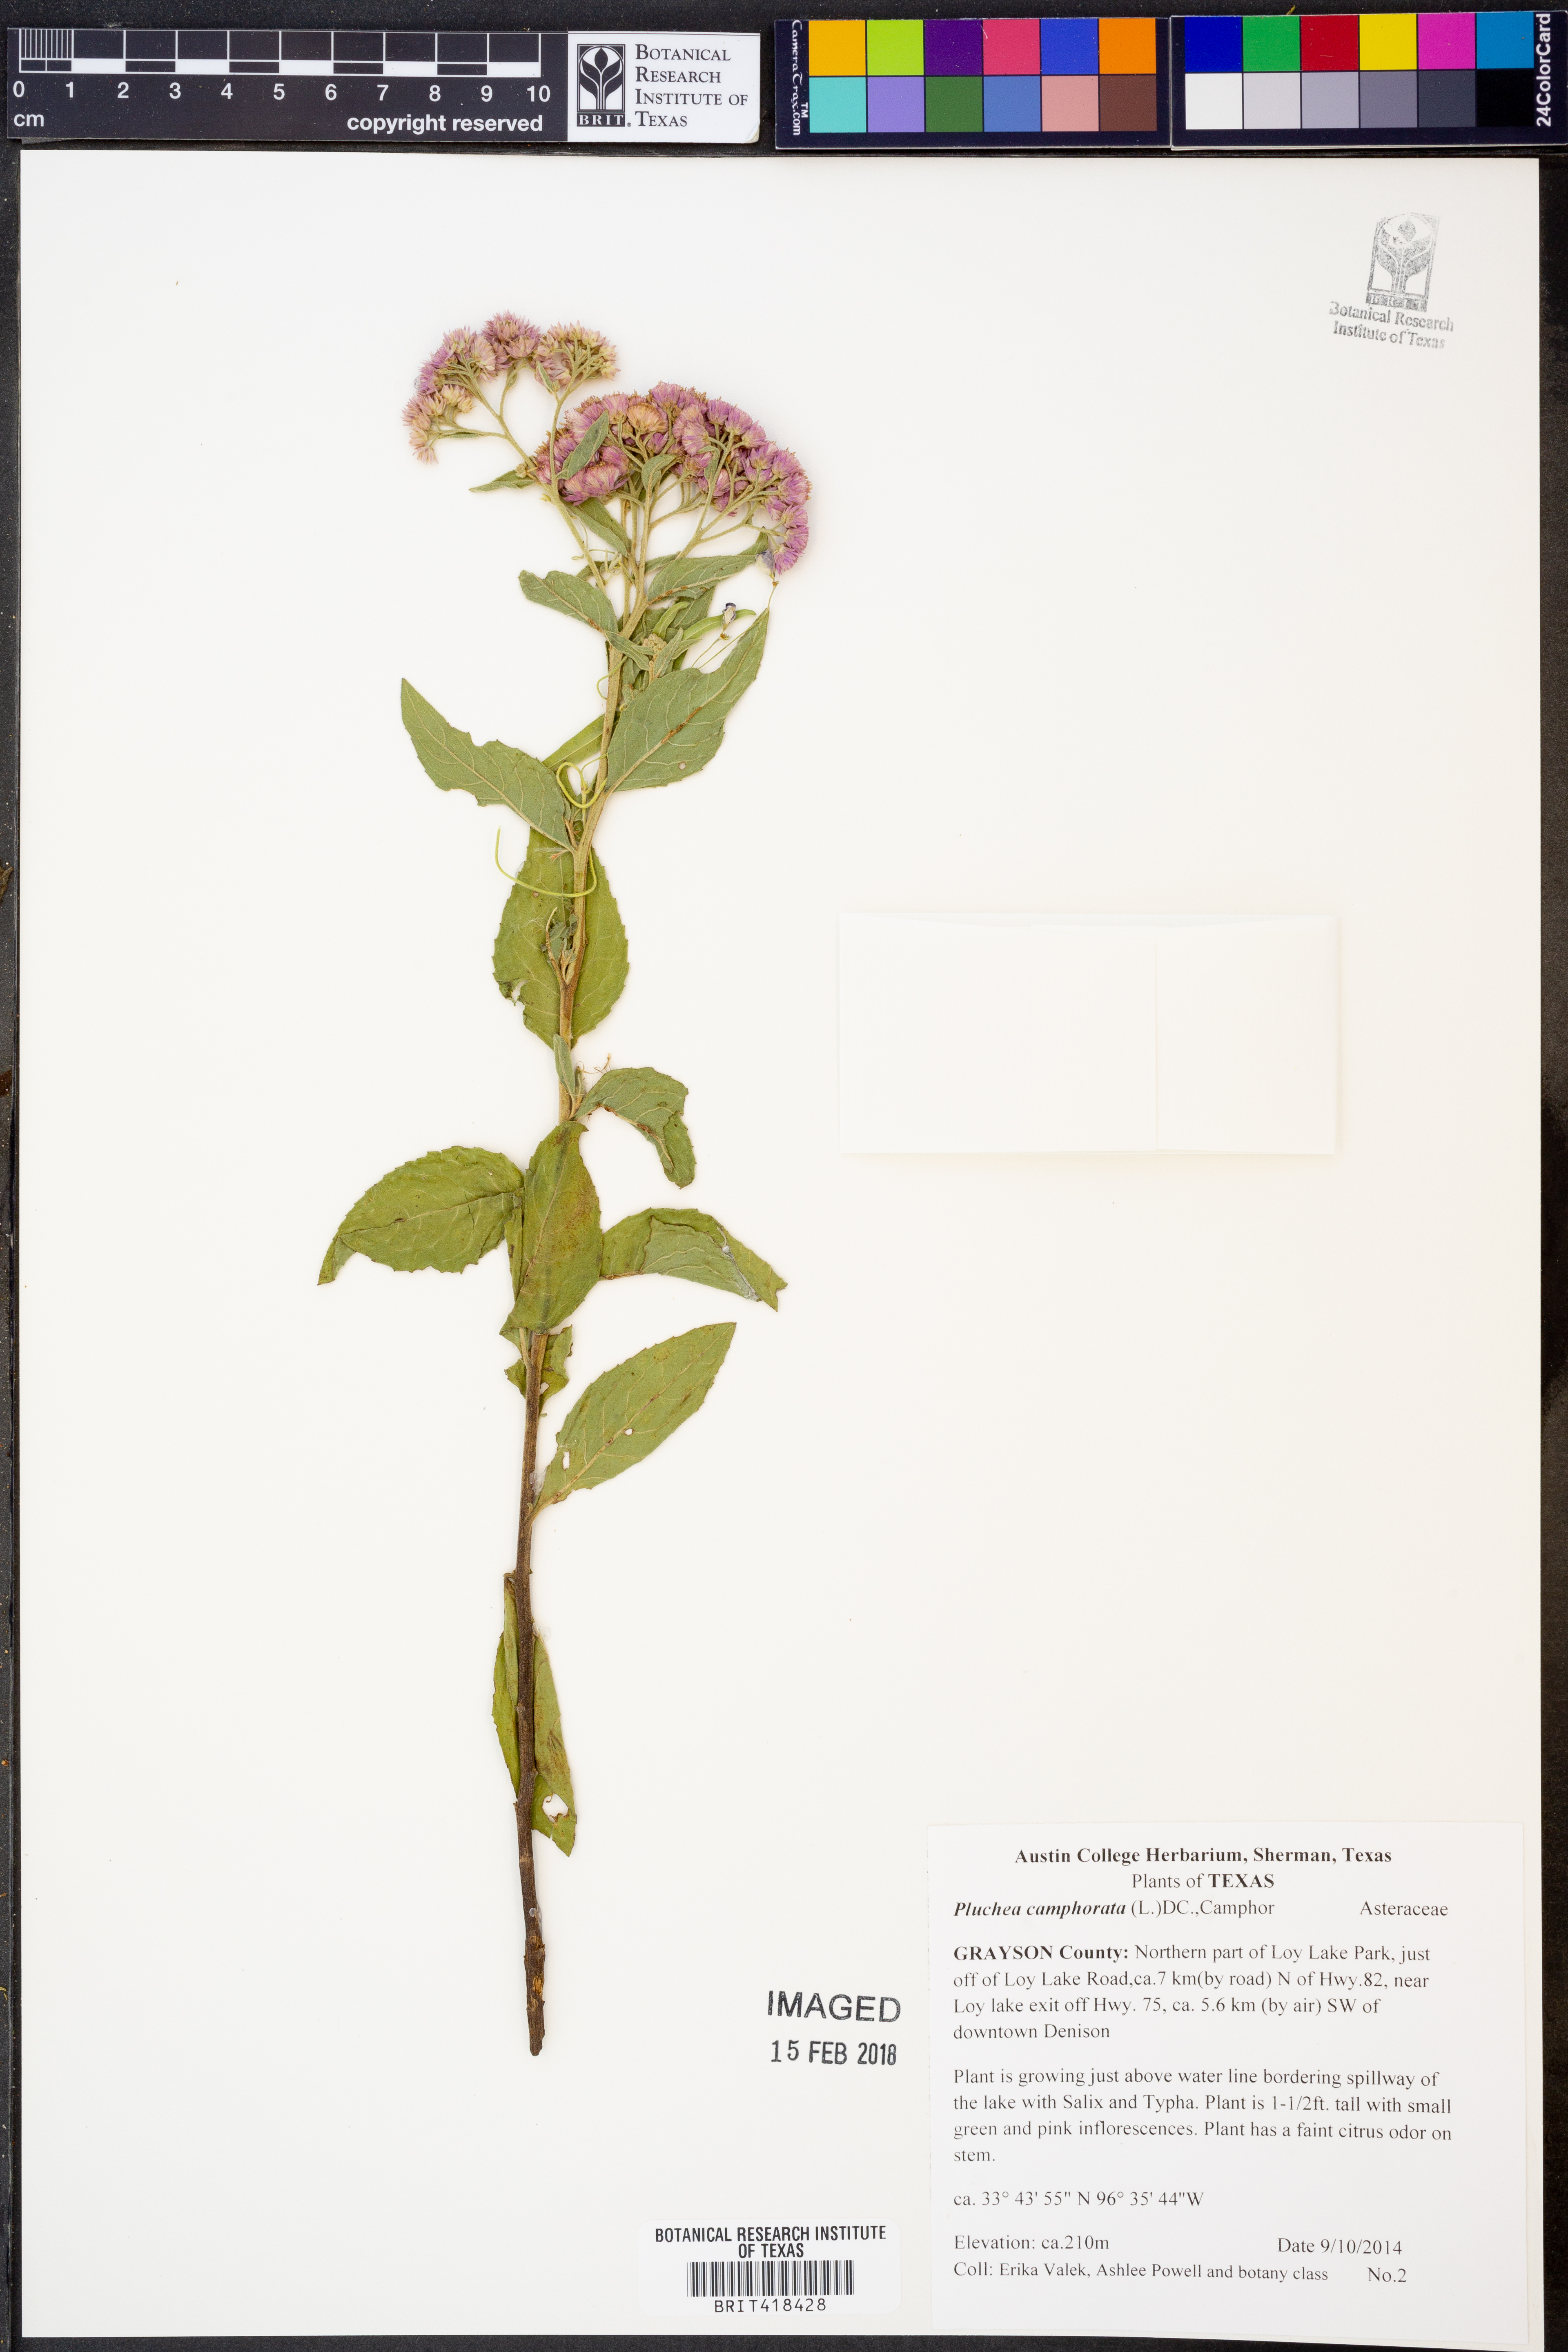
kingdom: Plantae
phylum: Tracheophyta
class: Magnoliopsida
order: Asterales
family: Asteraceae
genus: Pluchea
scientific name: Pluchea camphorata
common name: Camphor pluchea
